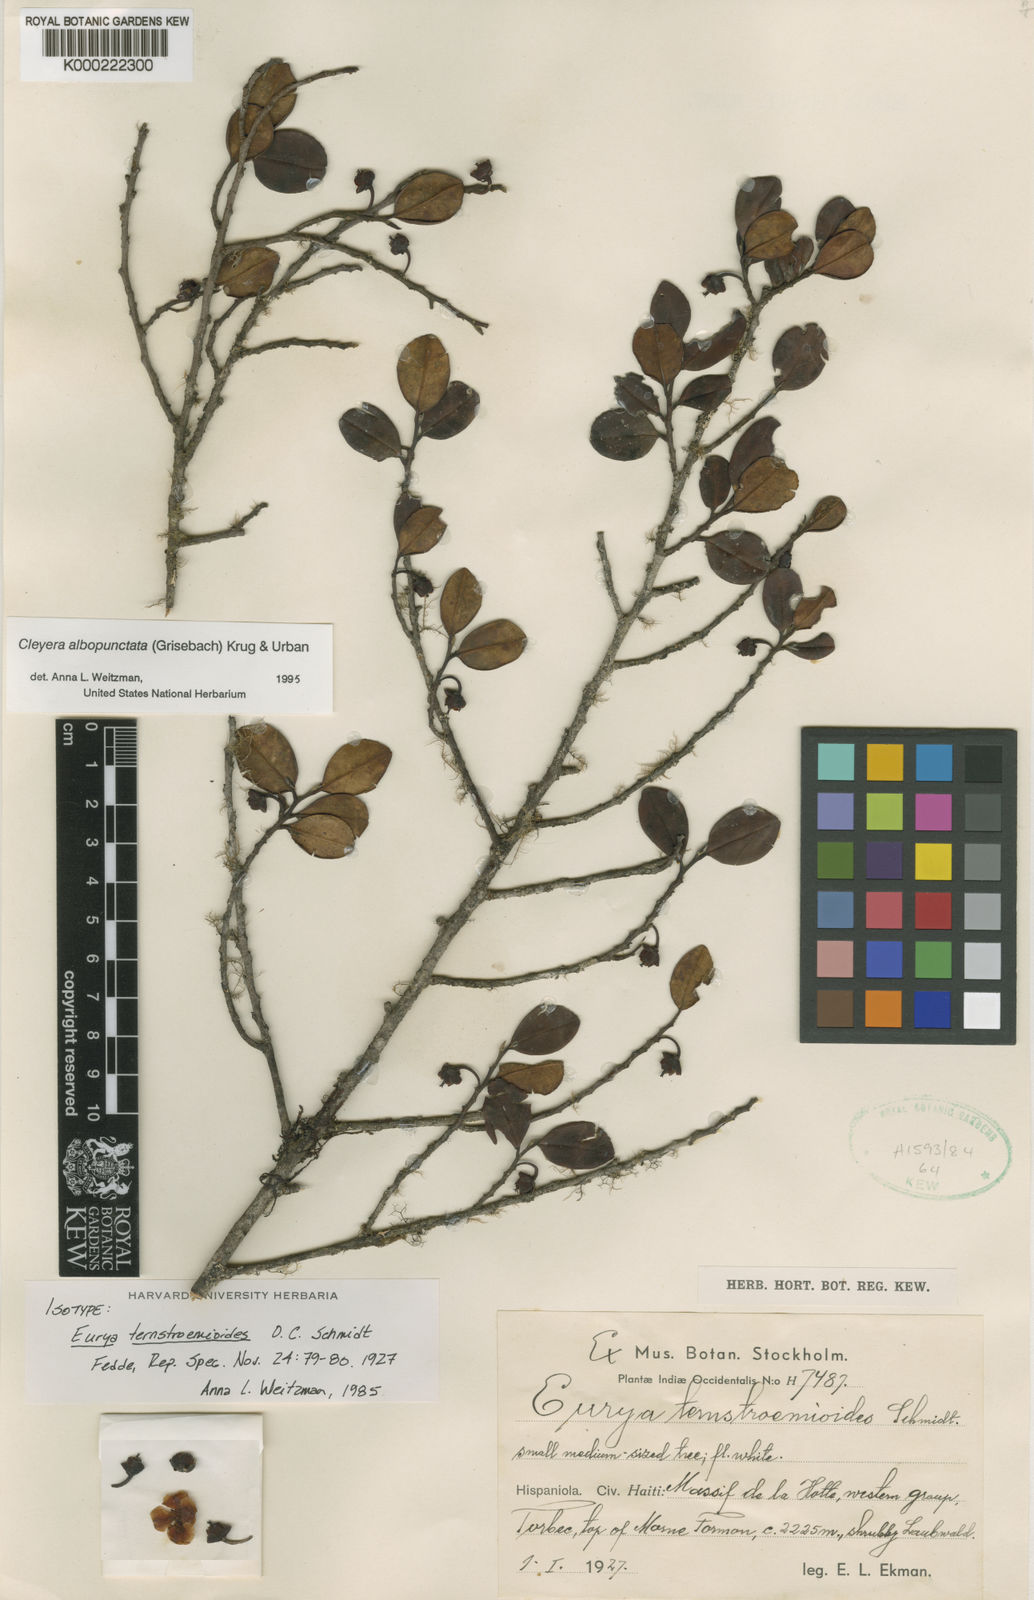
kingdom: Plantae
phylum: Tracheophyta
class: Magnoliopsida
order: Ericales
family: Pentaphylacaceae
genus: Cleyera
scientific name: Cleyera ternstroemioides
